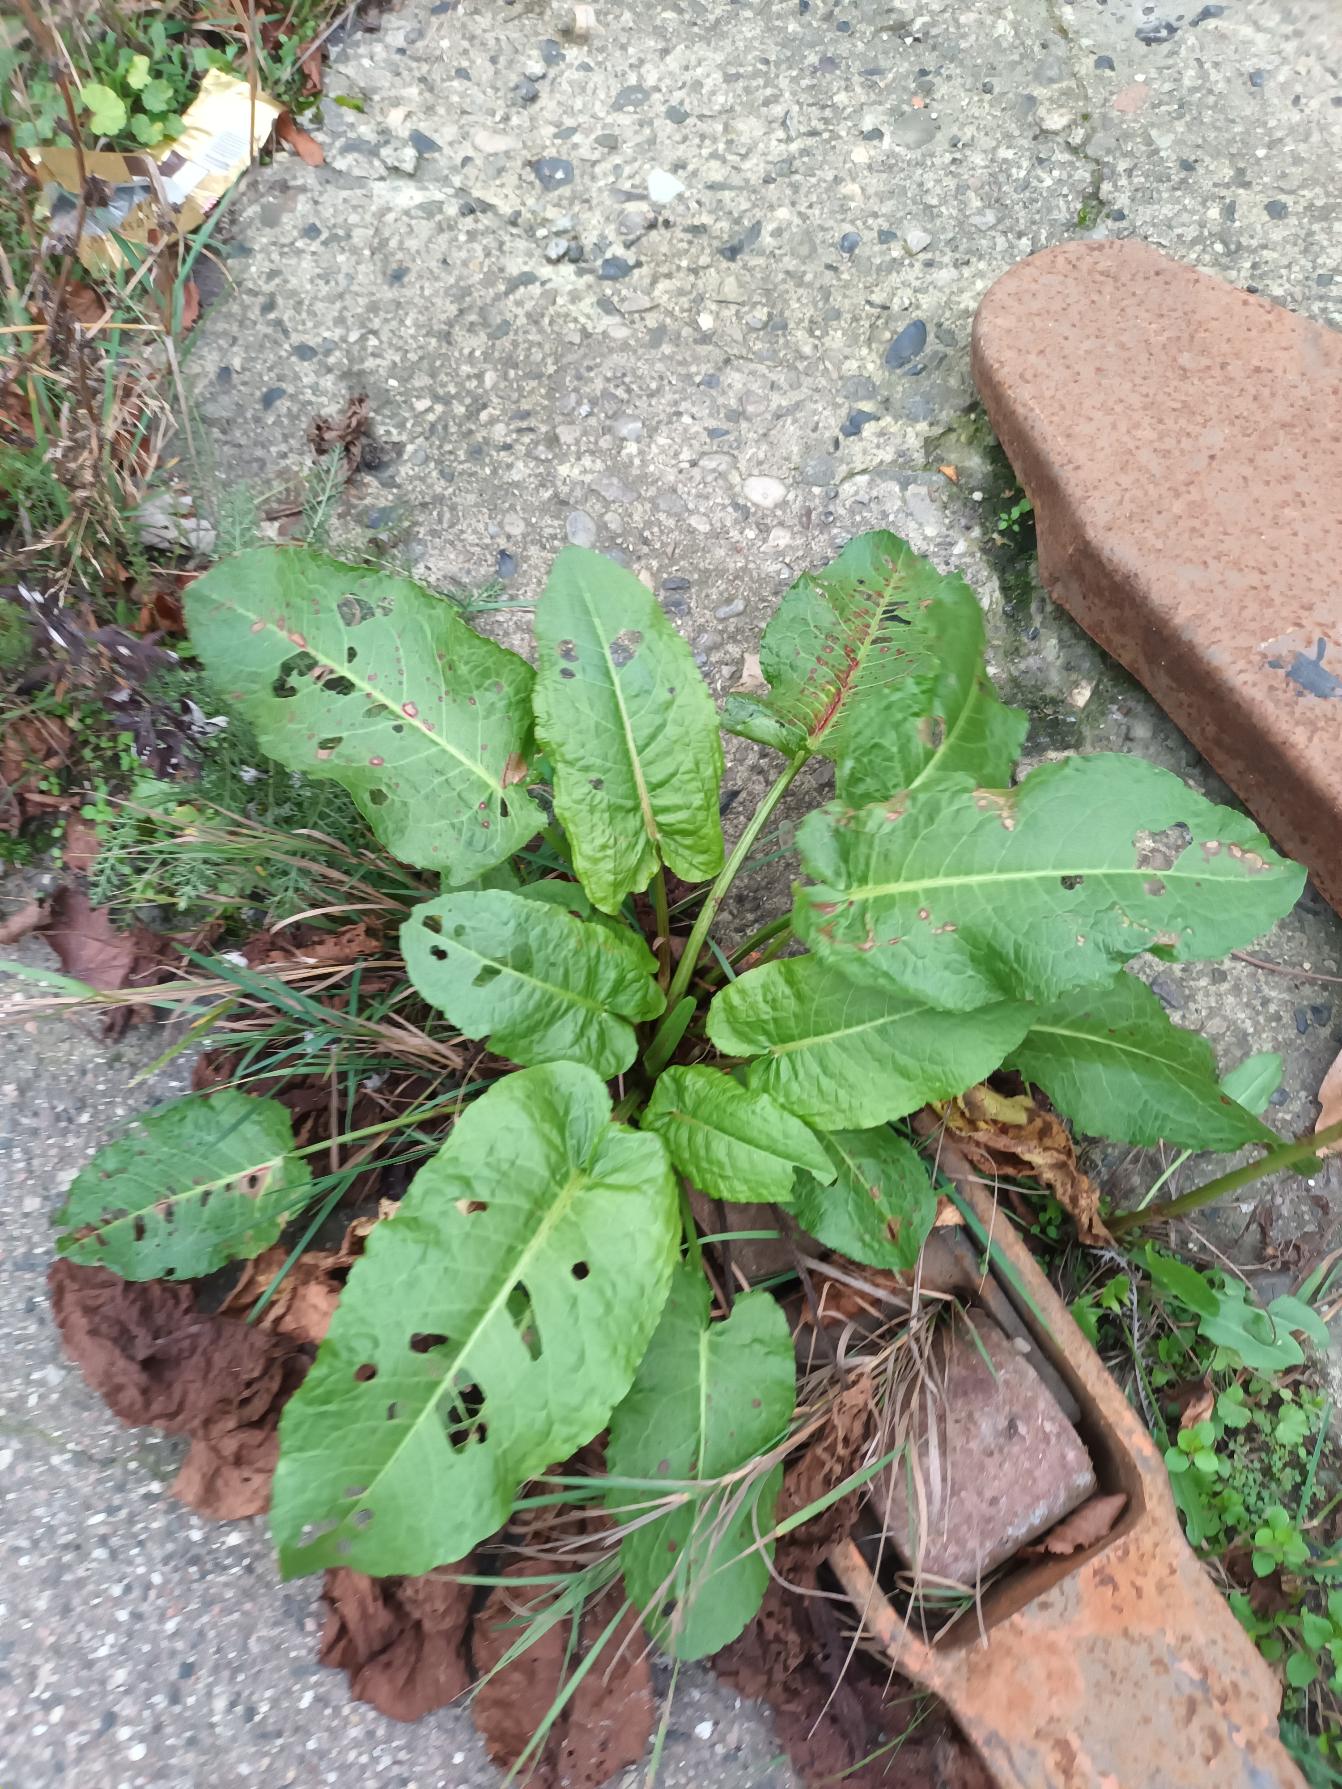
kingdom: Plantae
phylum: Tracheophyta
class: Magnoliopsida
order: Caryophyllales
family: Polygonaceae
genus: Rumex
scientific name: Rumex obtusifolius
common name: Butbladet skræppe
